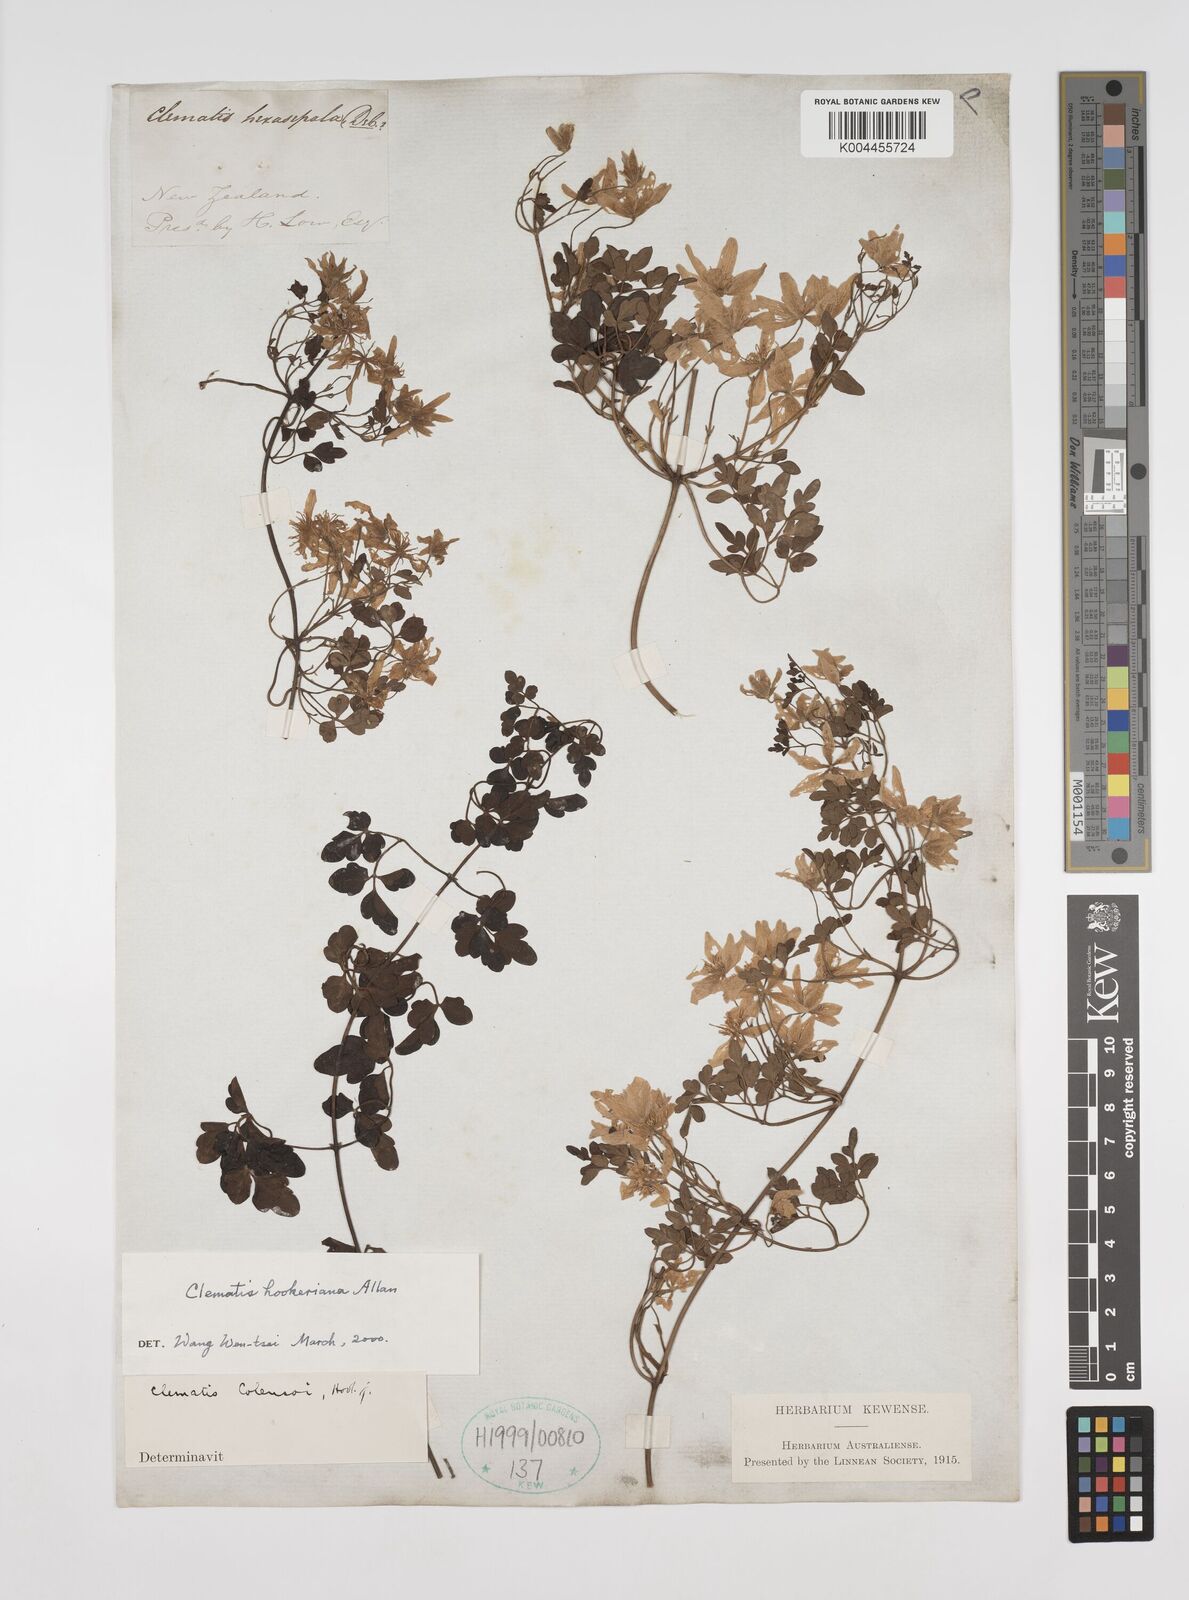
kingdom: Plantae
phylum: Tracheophyta
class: Magnoliopsida
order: Ranunculales
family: Ranunculaceae
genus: Clematis
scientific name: Clematis forsteri
